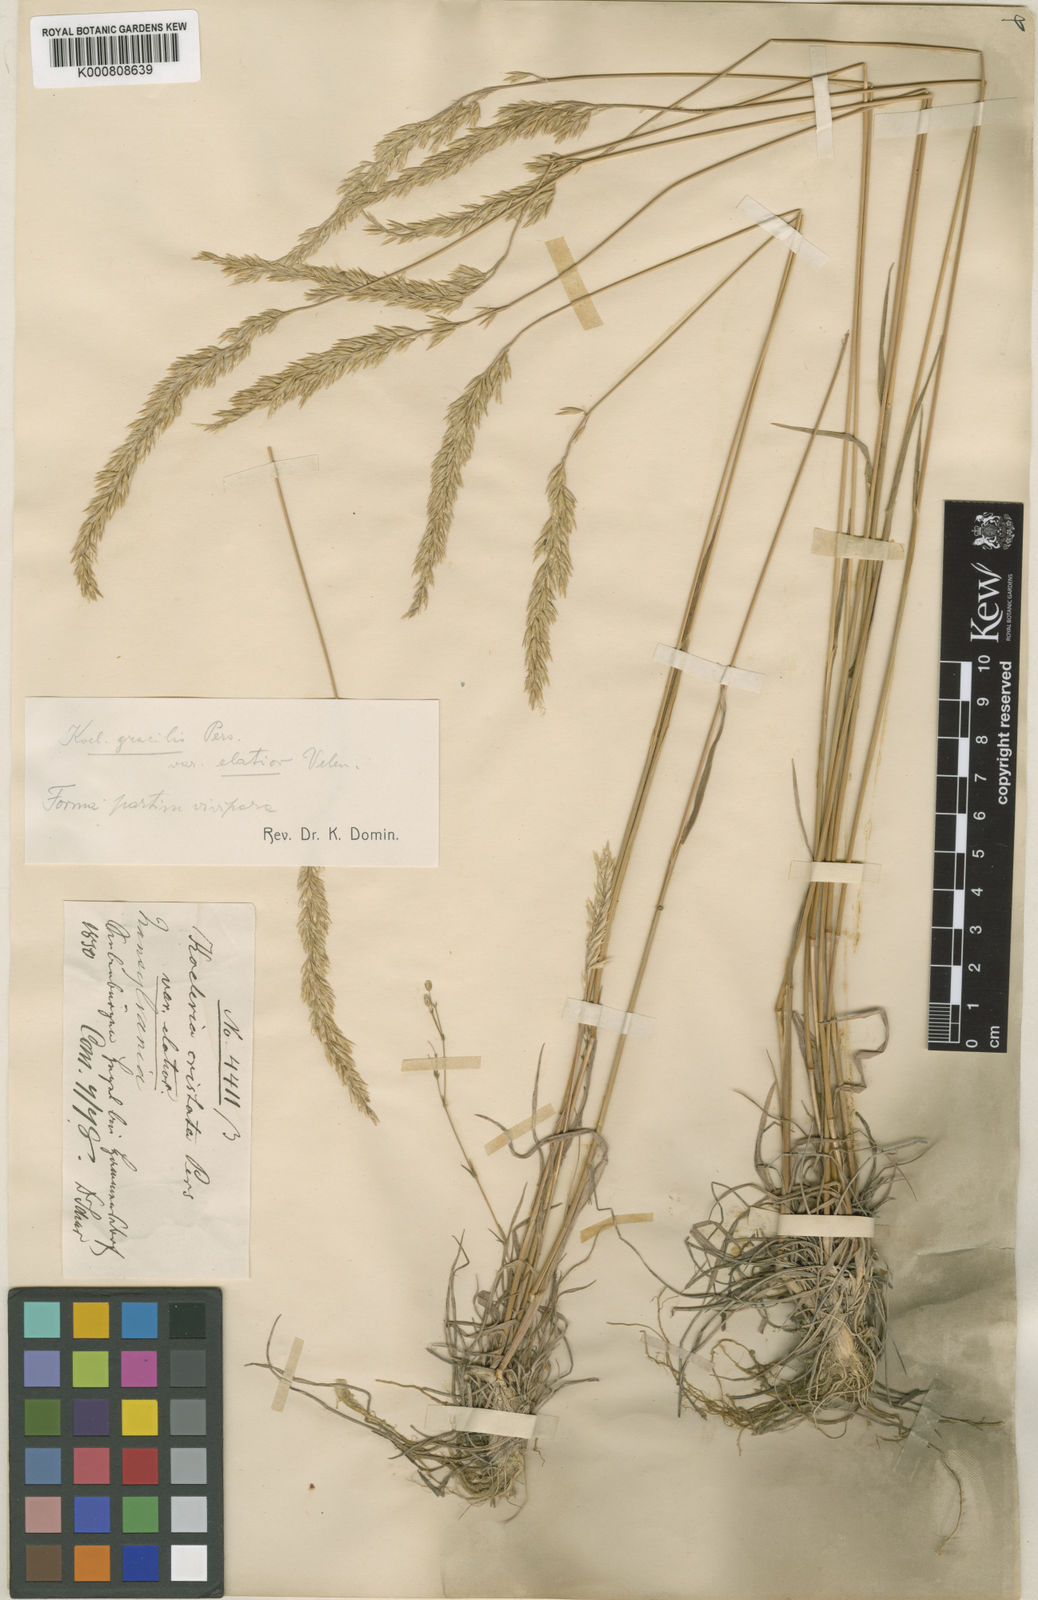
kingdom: Plantae
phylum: Tracheophyta
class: Liliopsida
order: Poales
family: Poaceae
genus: Koeleria
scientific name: Koeleria macrantha
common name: Crested hair-grass
